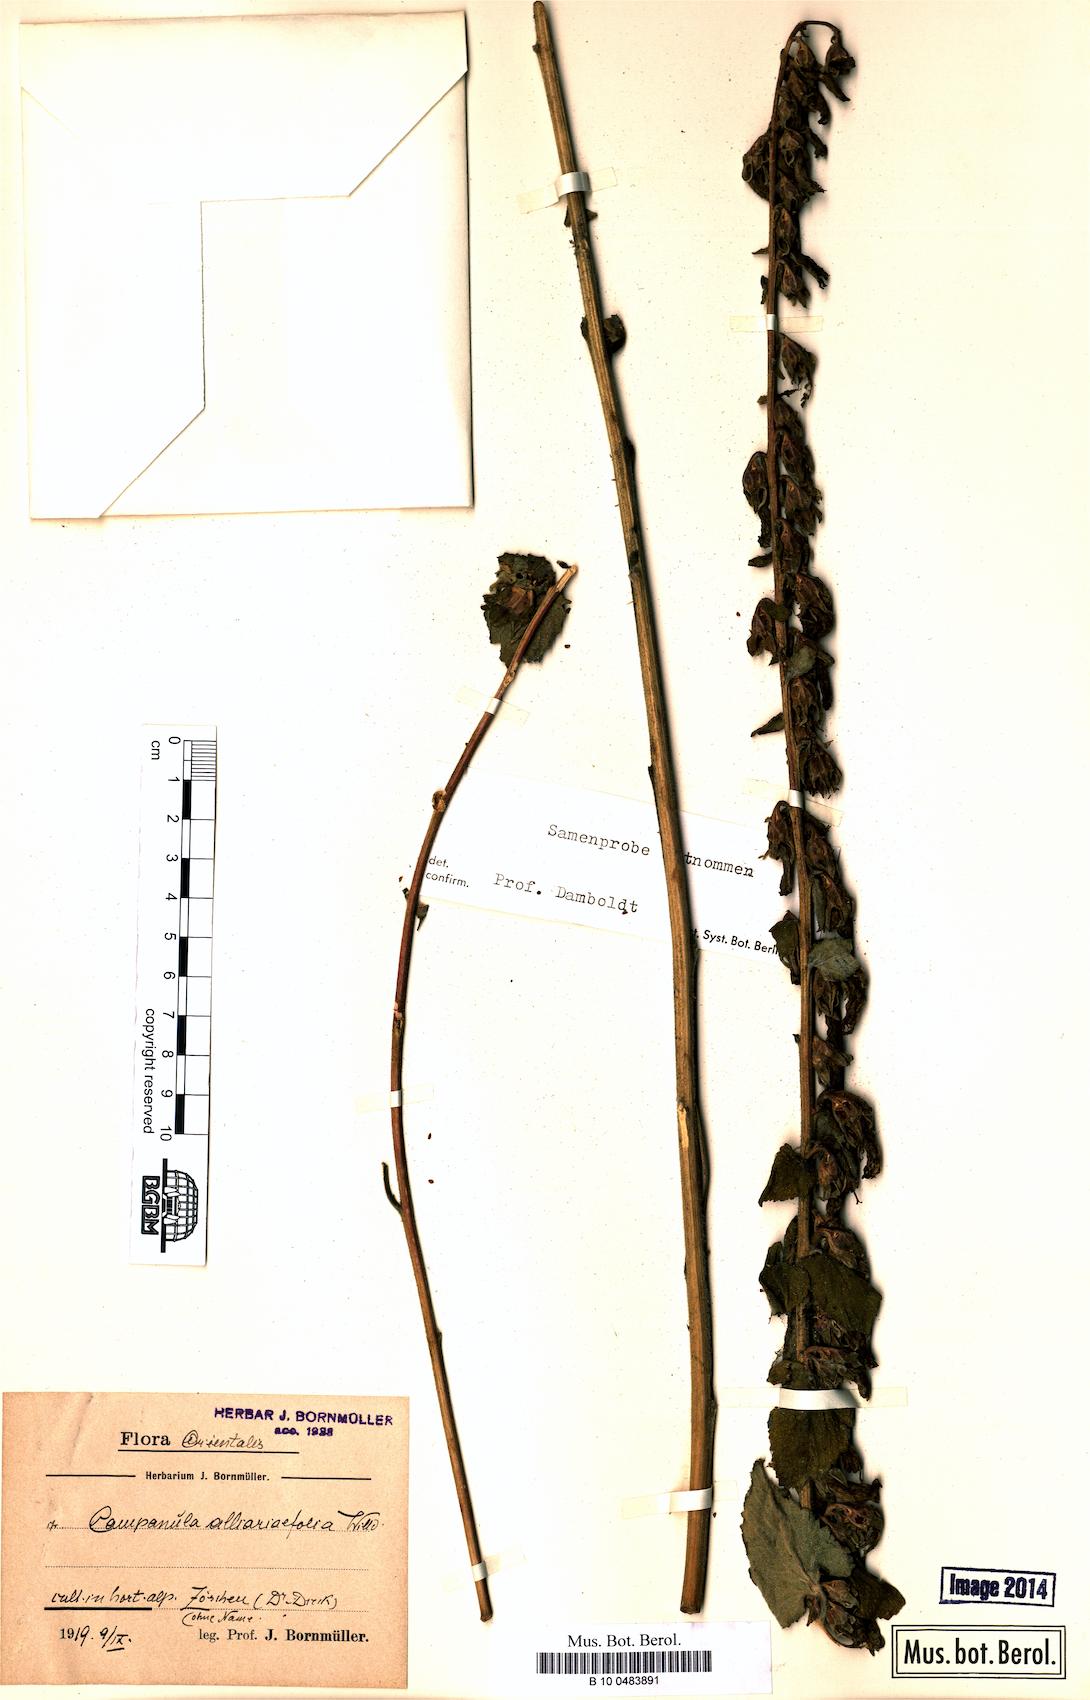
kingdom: Plantae
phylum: Tracheophyta
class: Magnoliopsida
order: Asterales
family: Campanulaceae
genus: Campanula
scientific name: Campanula alliariifolia
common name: Cornish bellflower
